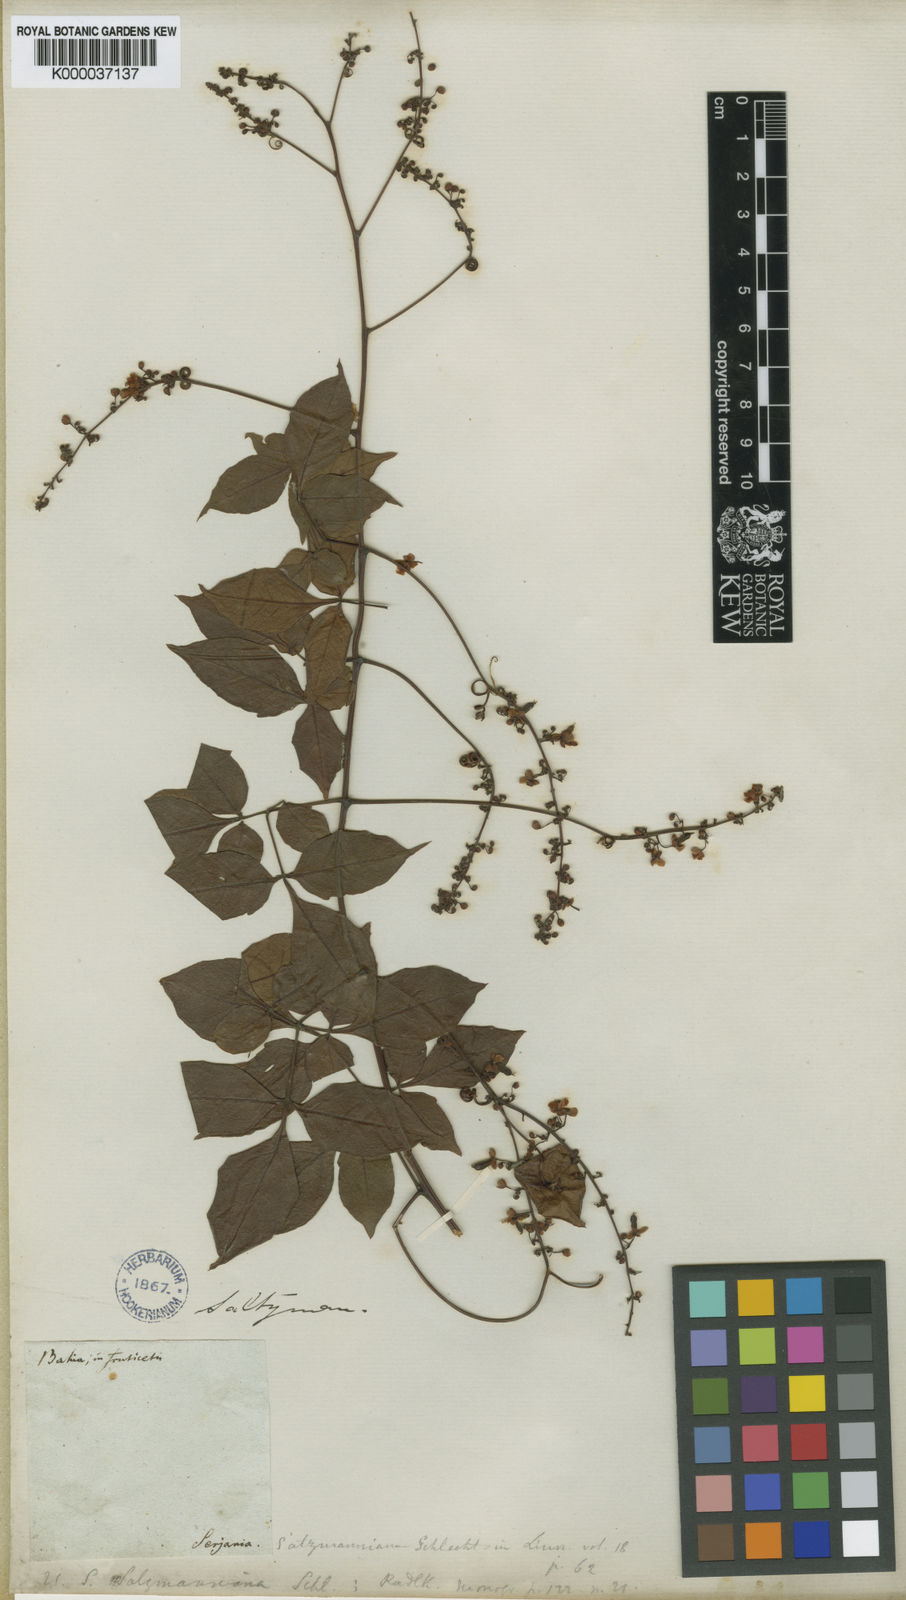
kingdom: Plantae
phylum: Tracheophyta
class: Magnoliopsida
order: Sapindales
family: Sapindaceae
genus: Serjania
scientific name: Serjania salzmanniana
